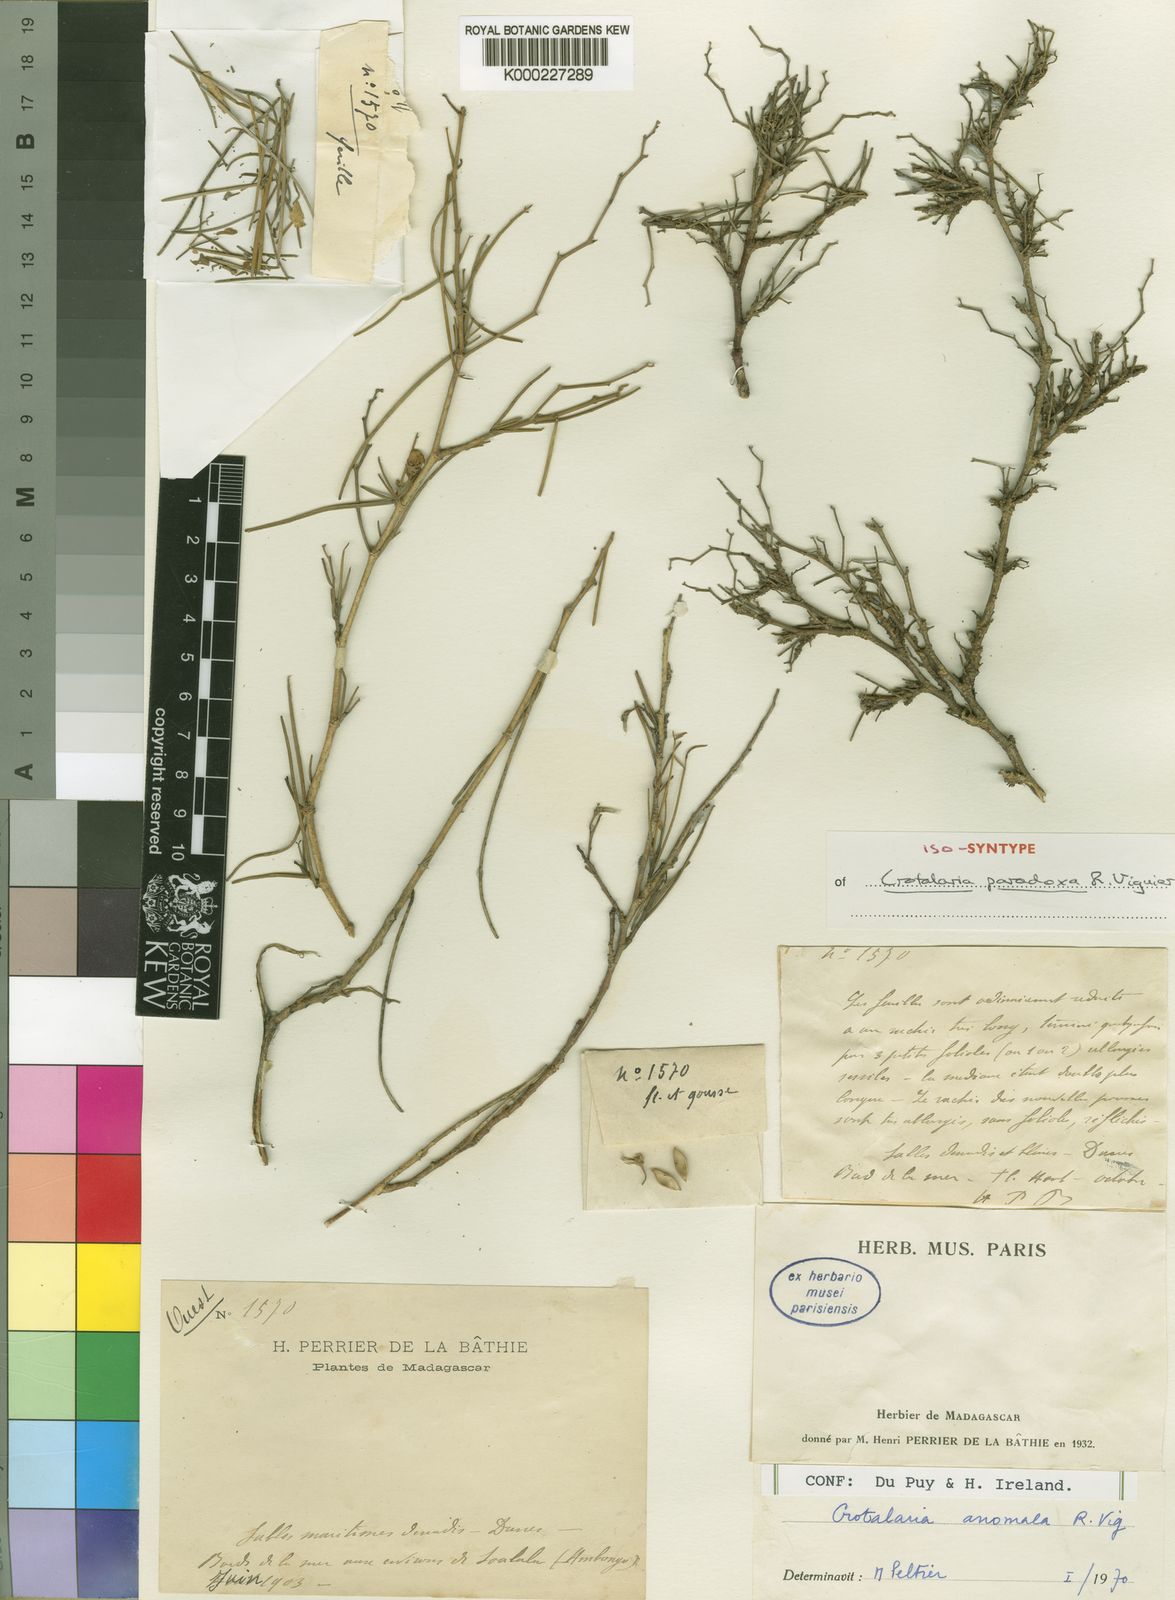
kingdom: Plantae
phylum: Tracheophyta
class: Magnoliopsida
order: Fabales
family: Fabaceae
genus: Crotalaria
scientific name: Crotalaria anomala
